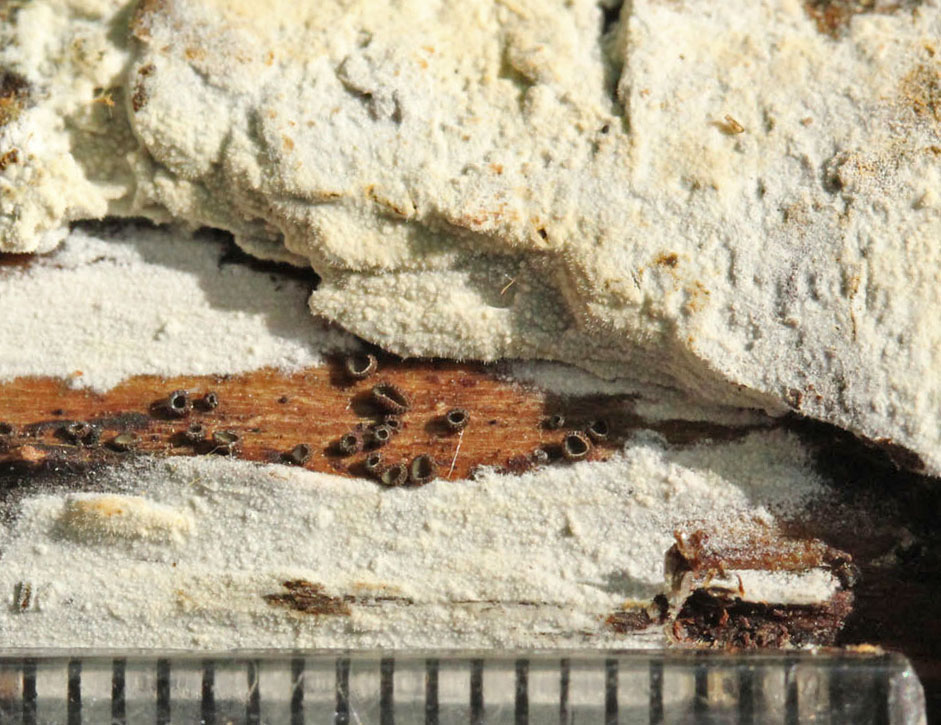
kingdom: Fungi
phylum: Basidiomycota
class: Agaricomycetes
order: Hymenochaetales
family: Rickenellaceae
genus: Peniophorella
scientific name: Peniophorella pubera
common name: dunet kalkskind
